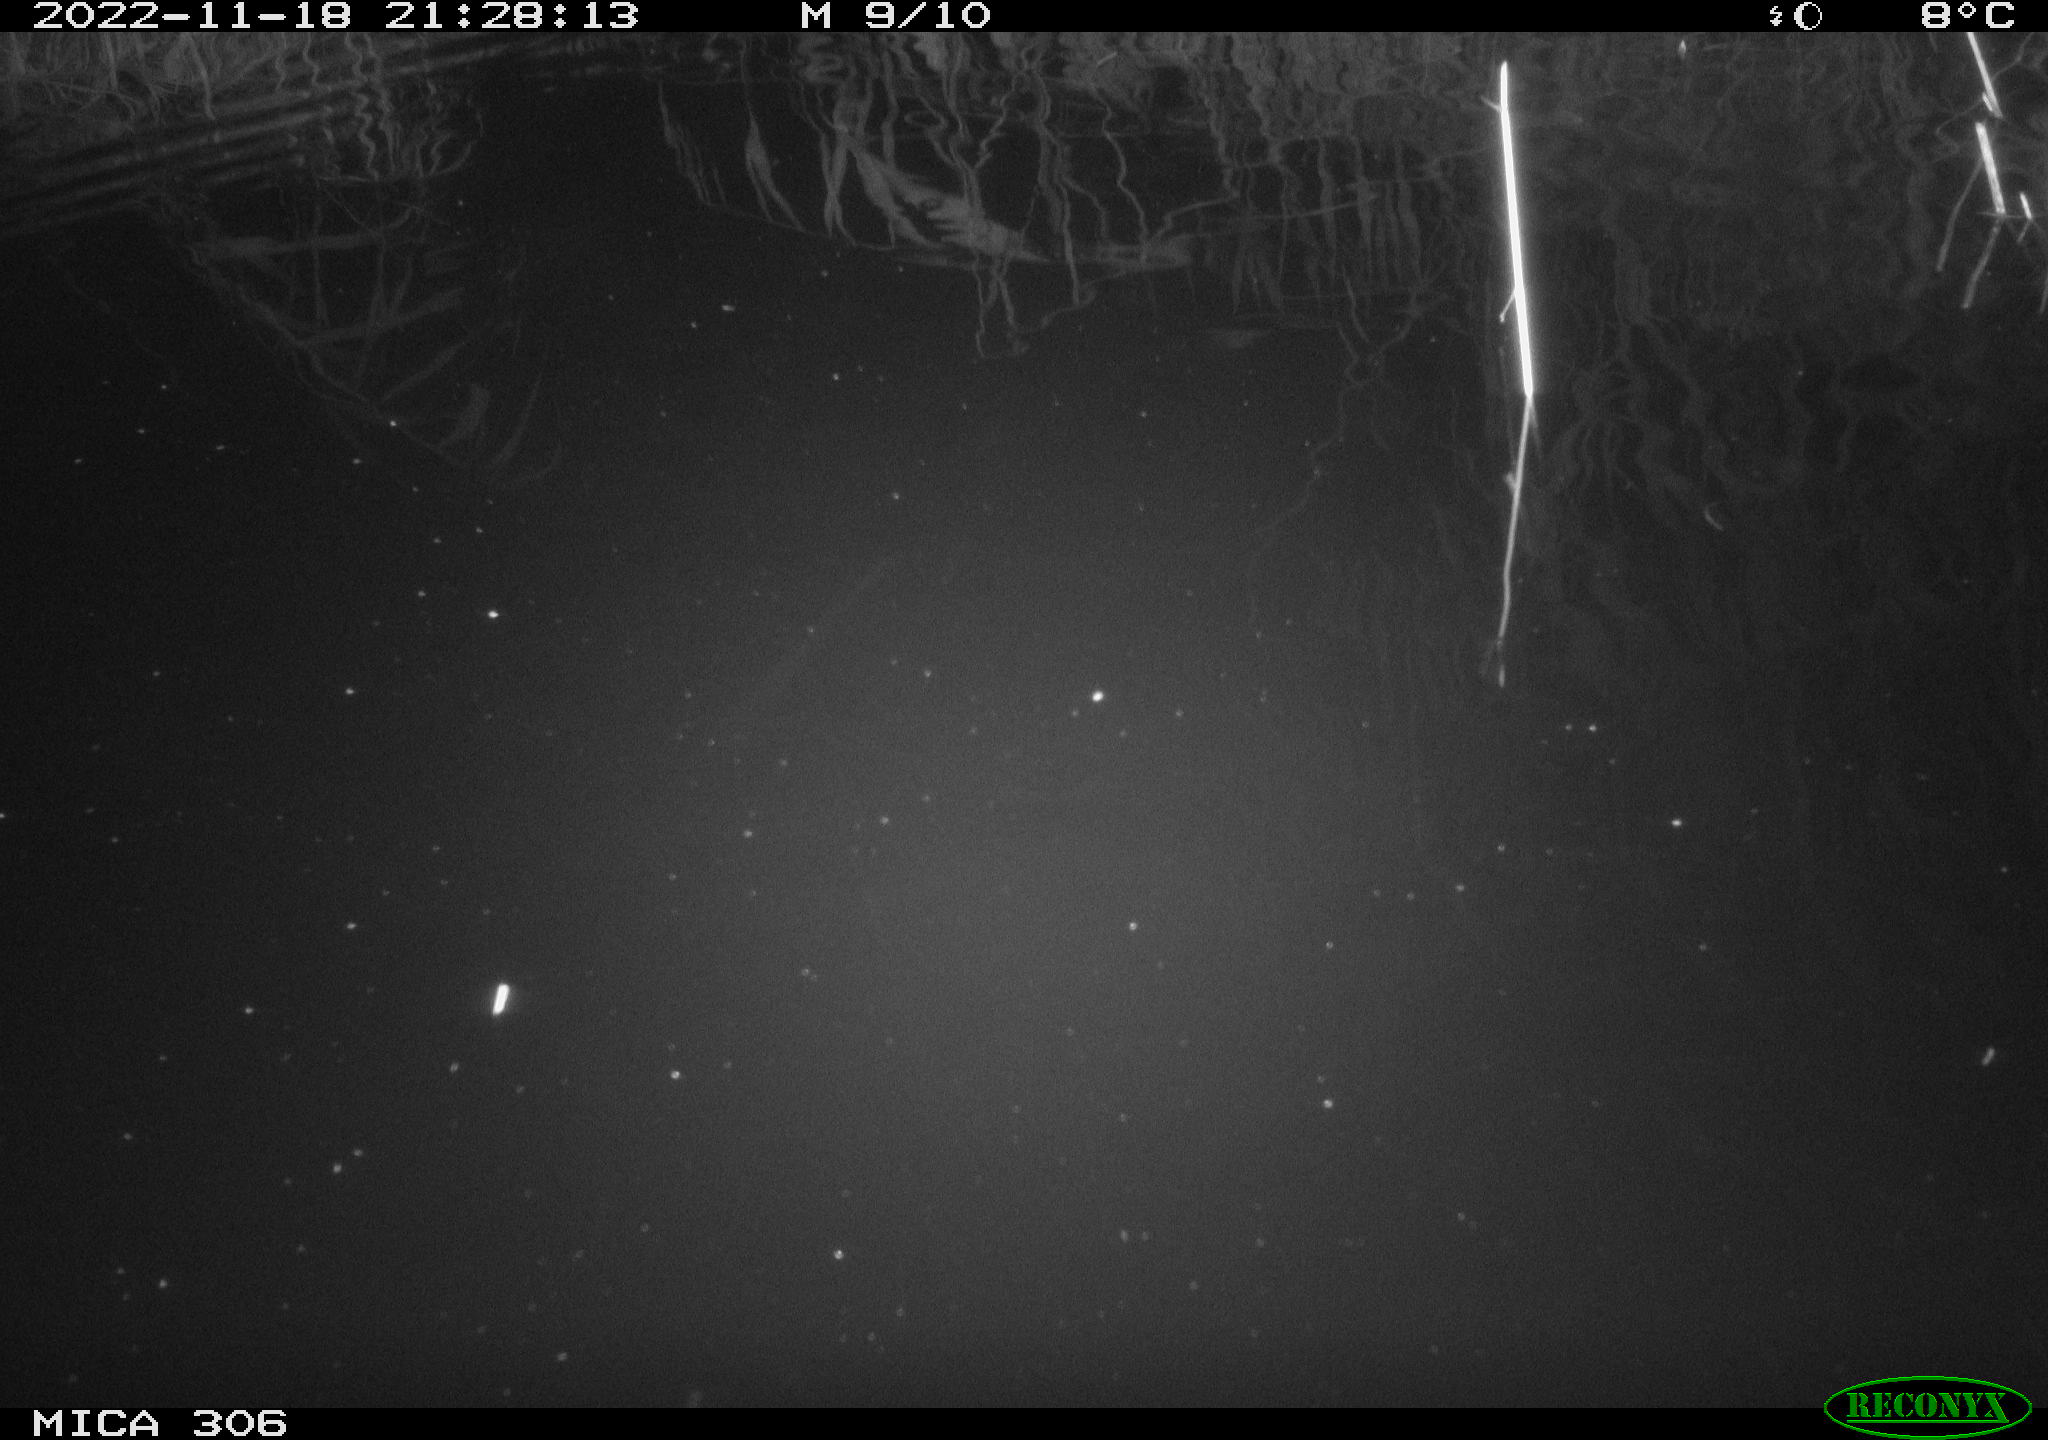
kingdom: Animalia
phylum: Chordata
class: Mammalia
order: Rodentia
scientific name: Rodentia
